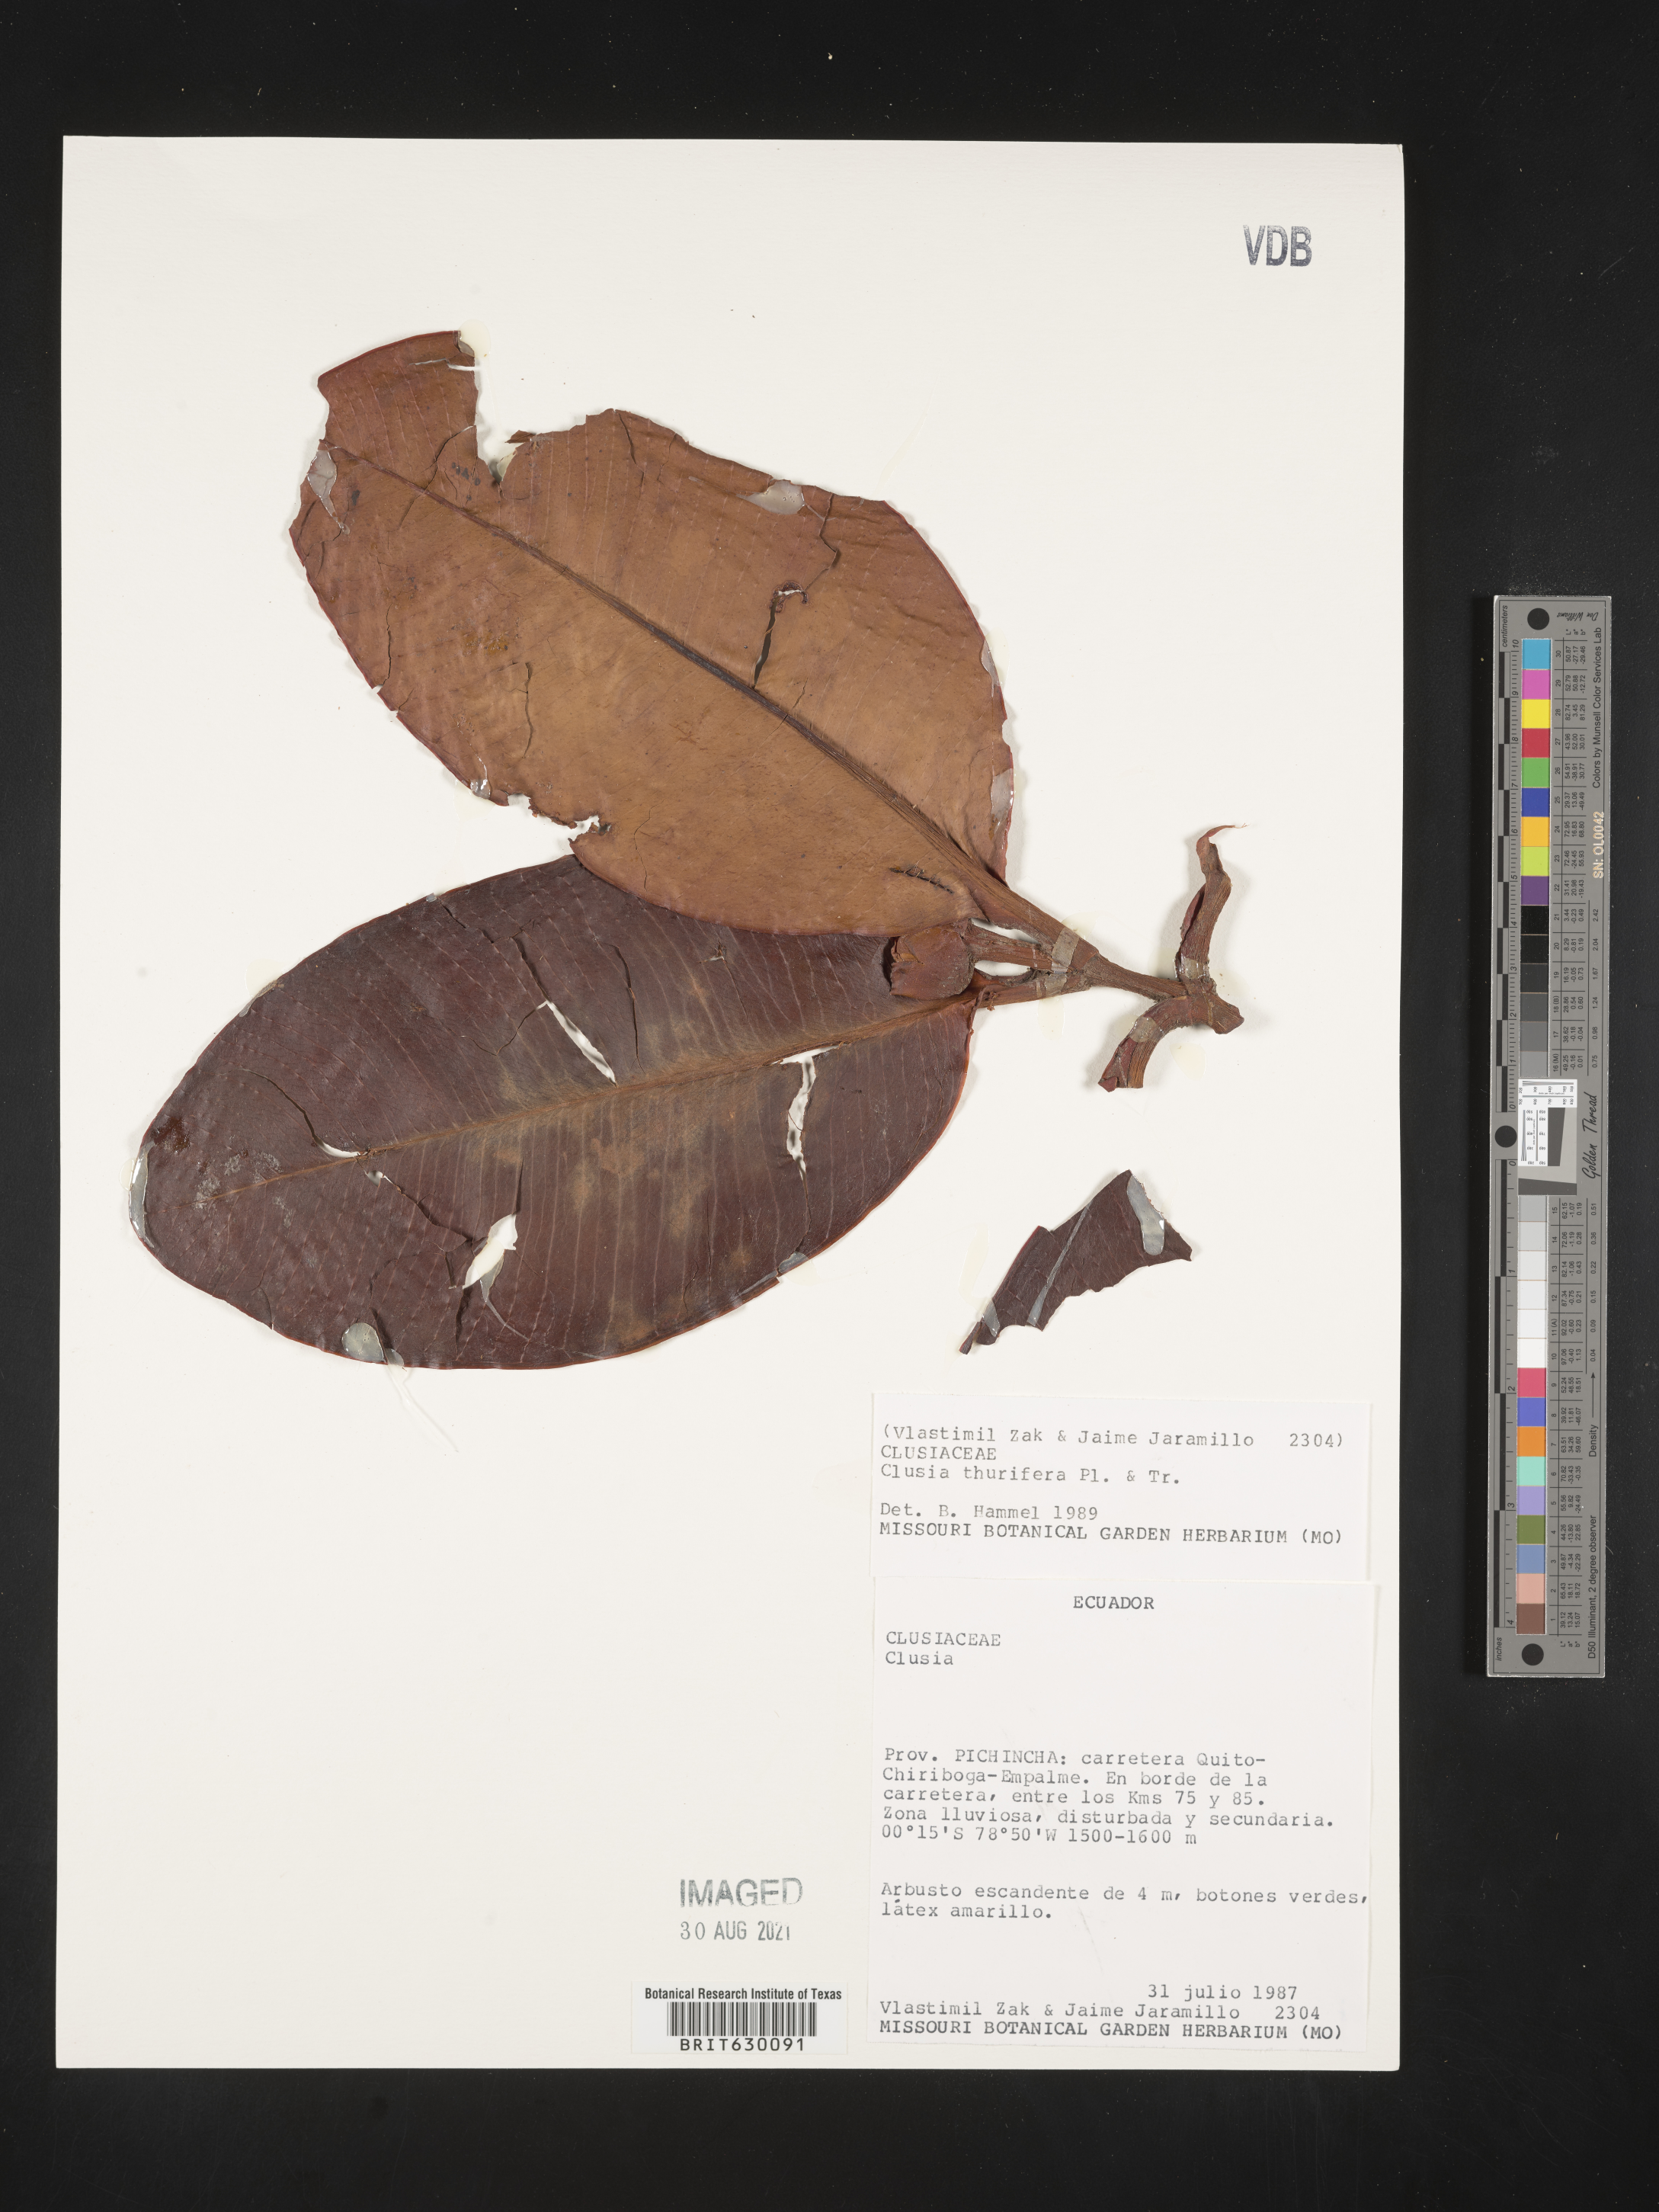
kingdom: Plantae
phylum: Tracheophyta
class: Magnoliopsida
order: Malpighiales
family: Clusiaceae
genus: Clusia
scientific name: Clusia thurifera
